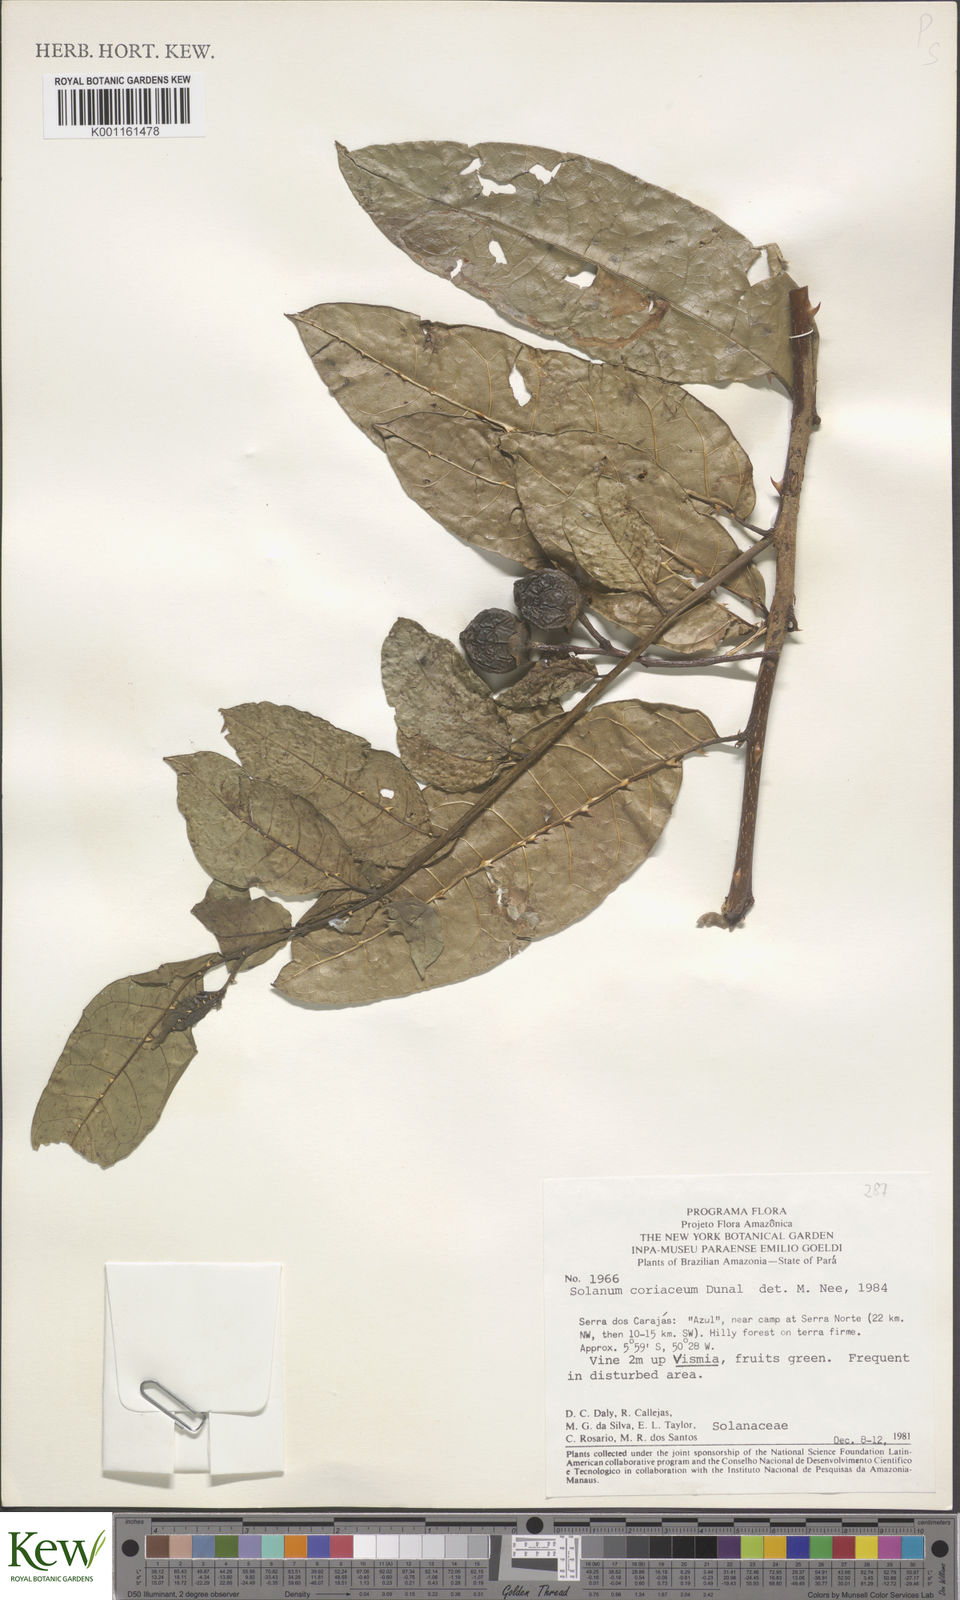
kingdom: Plantae
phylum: Tracheophyta
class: Magnoliopsida
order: Solanales
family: Solanaceae
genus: Solanum
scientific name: Solanum coriaceum
